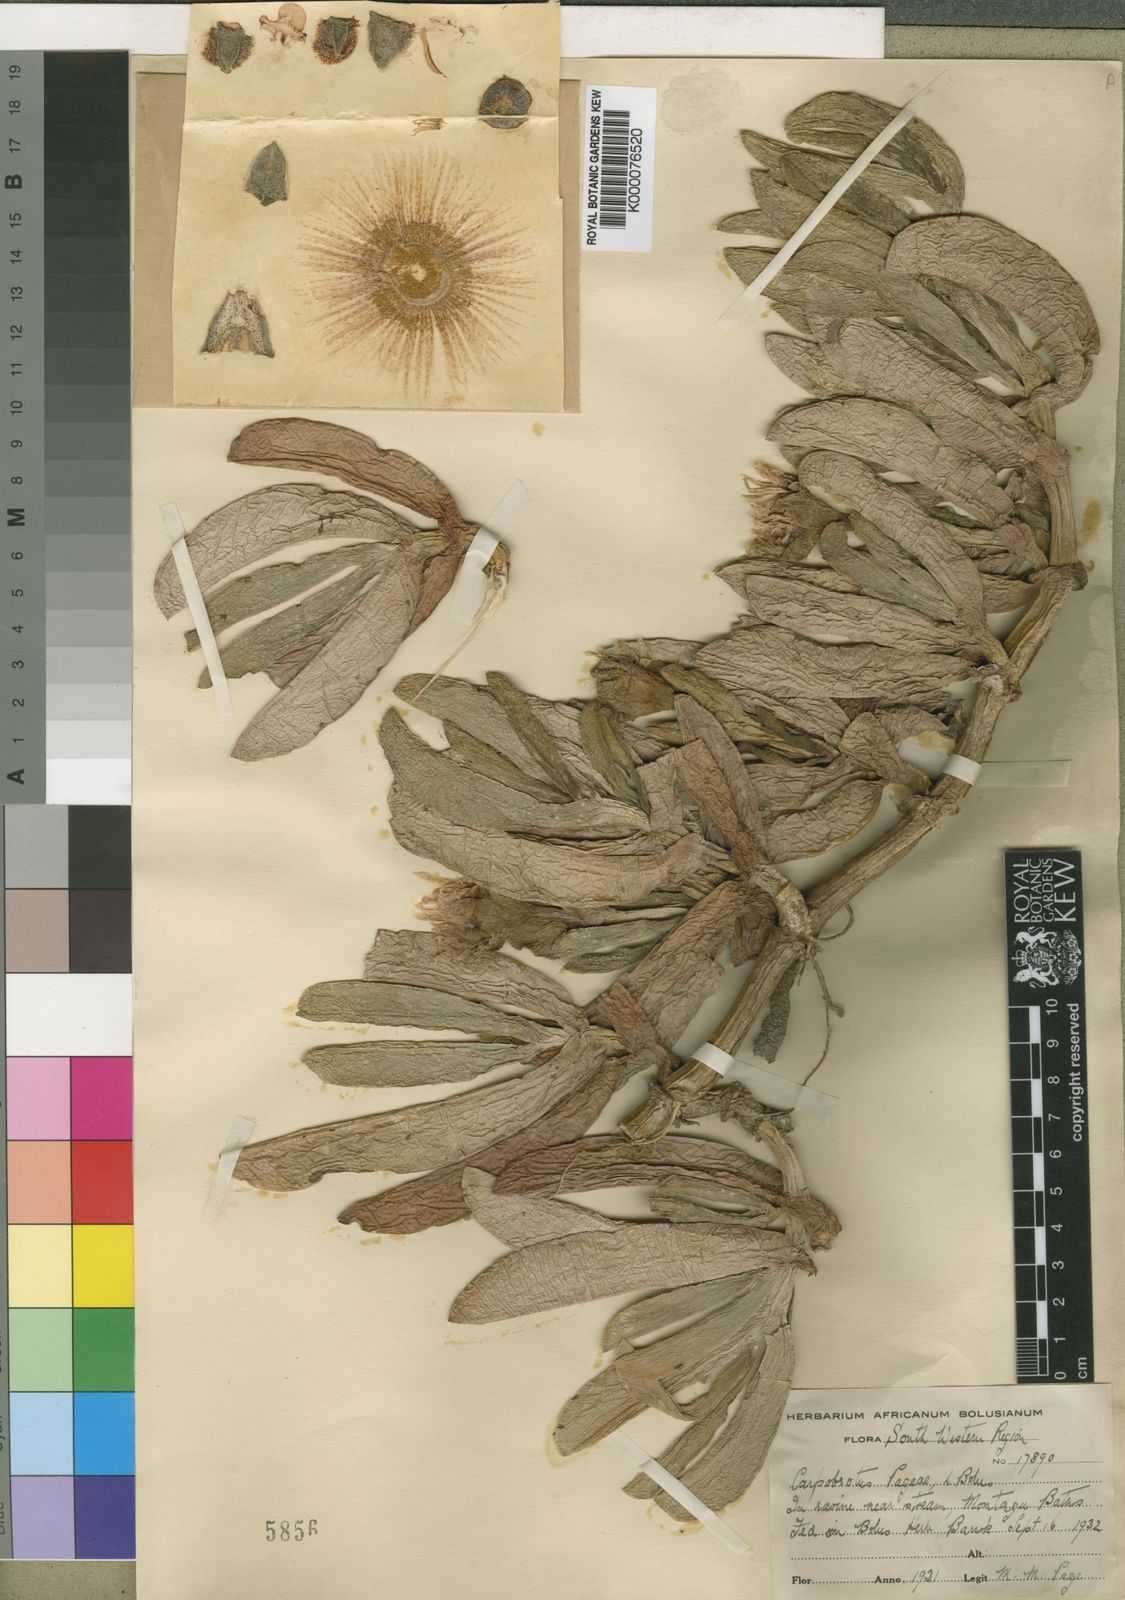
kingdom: Plantae
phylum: Tracheophyta
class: Magnoliopsida
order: Caryophyllales
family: Aizoaceae
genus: Carpobrotus
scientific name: Carpobrotus mellei
